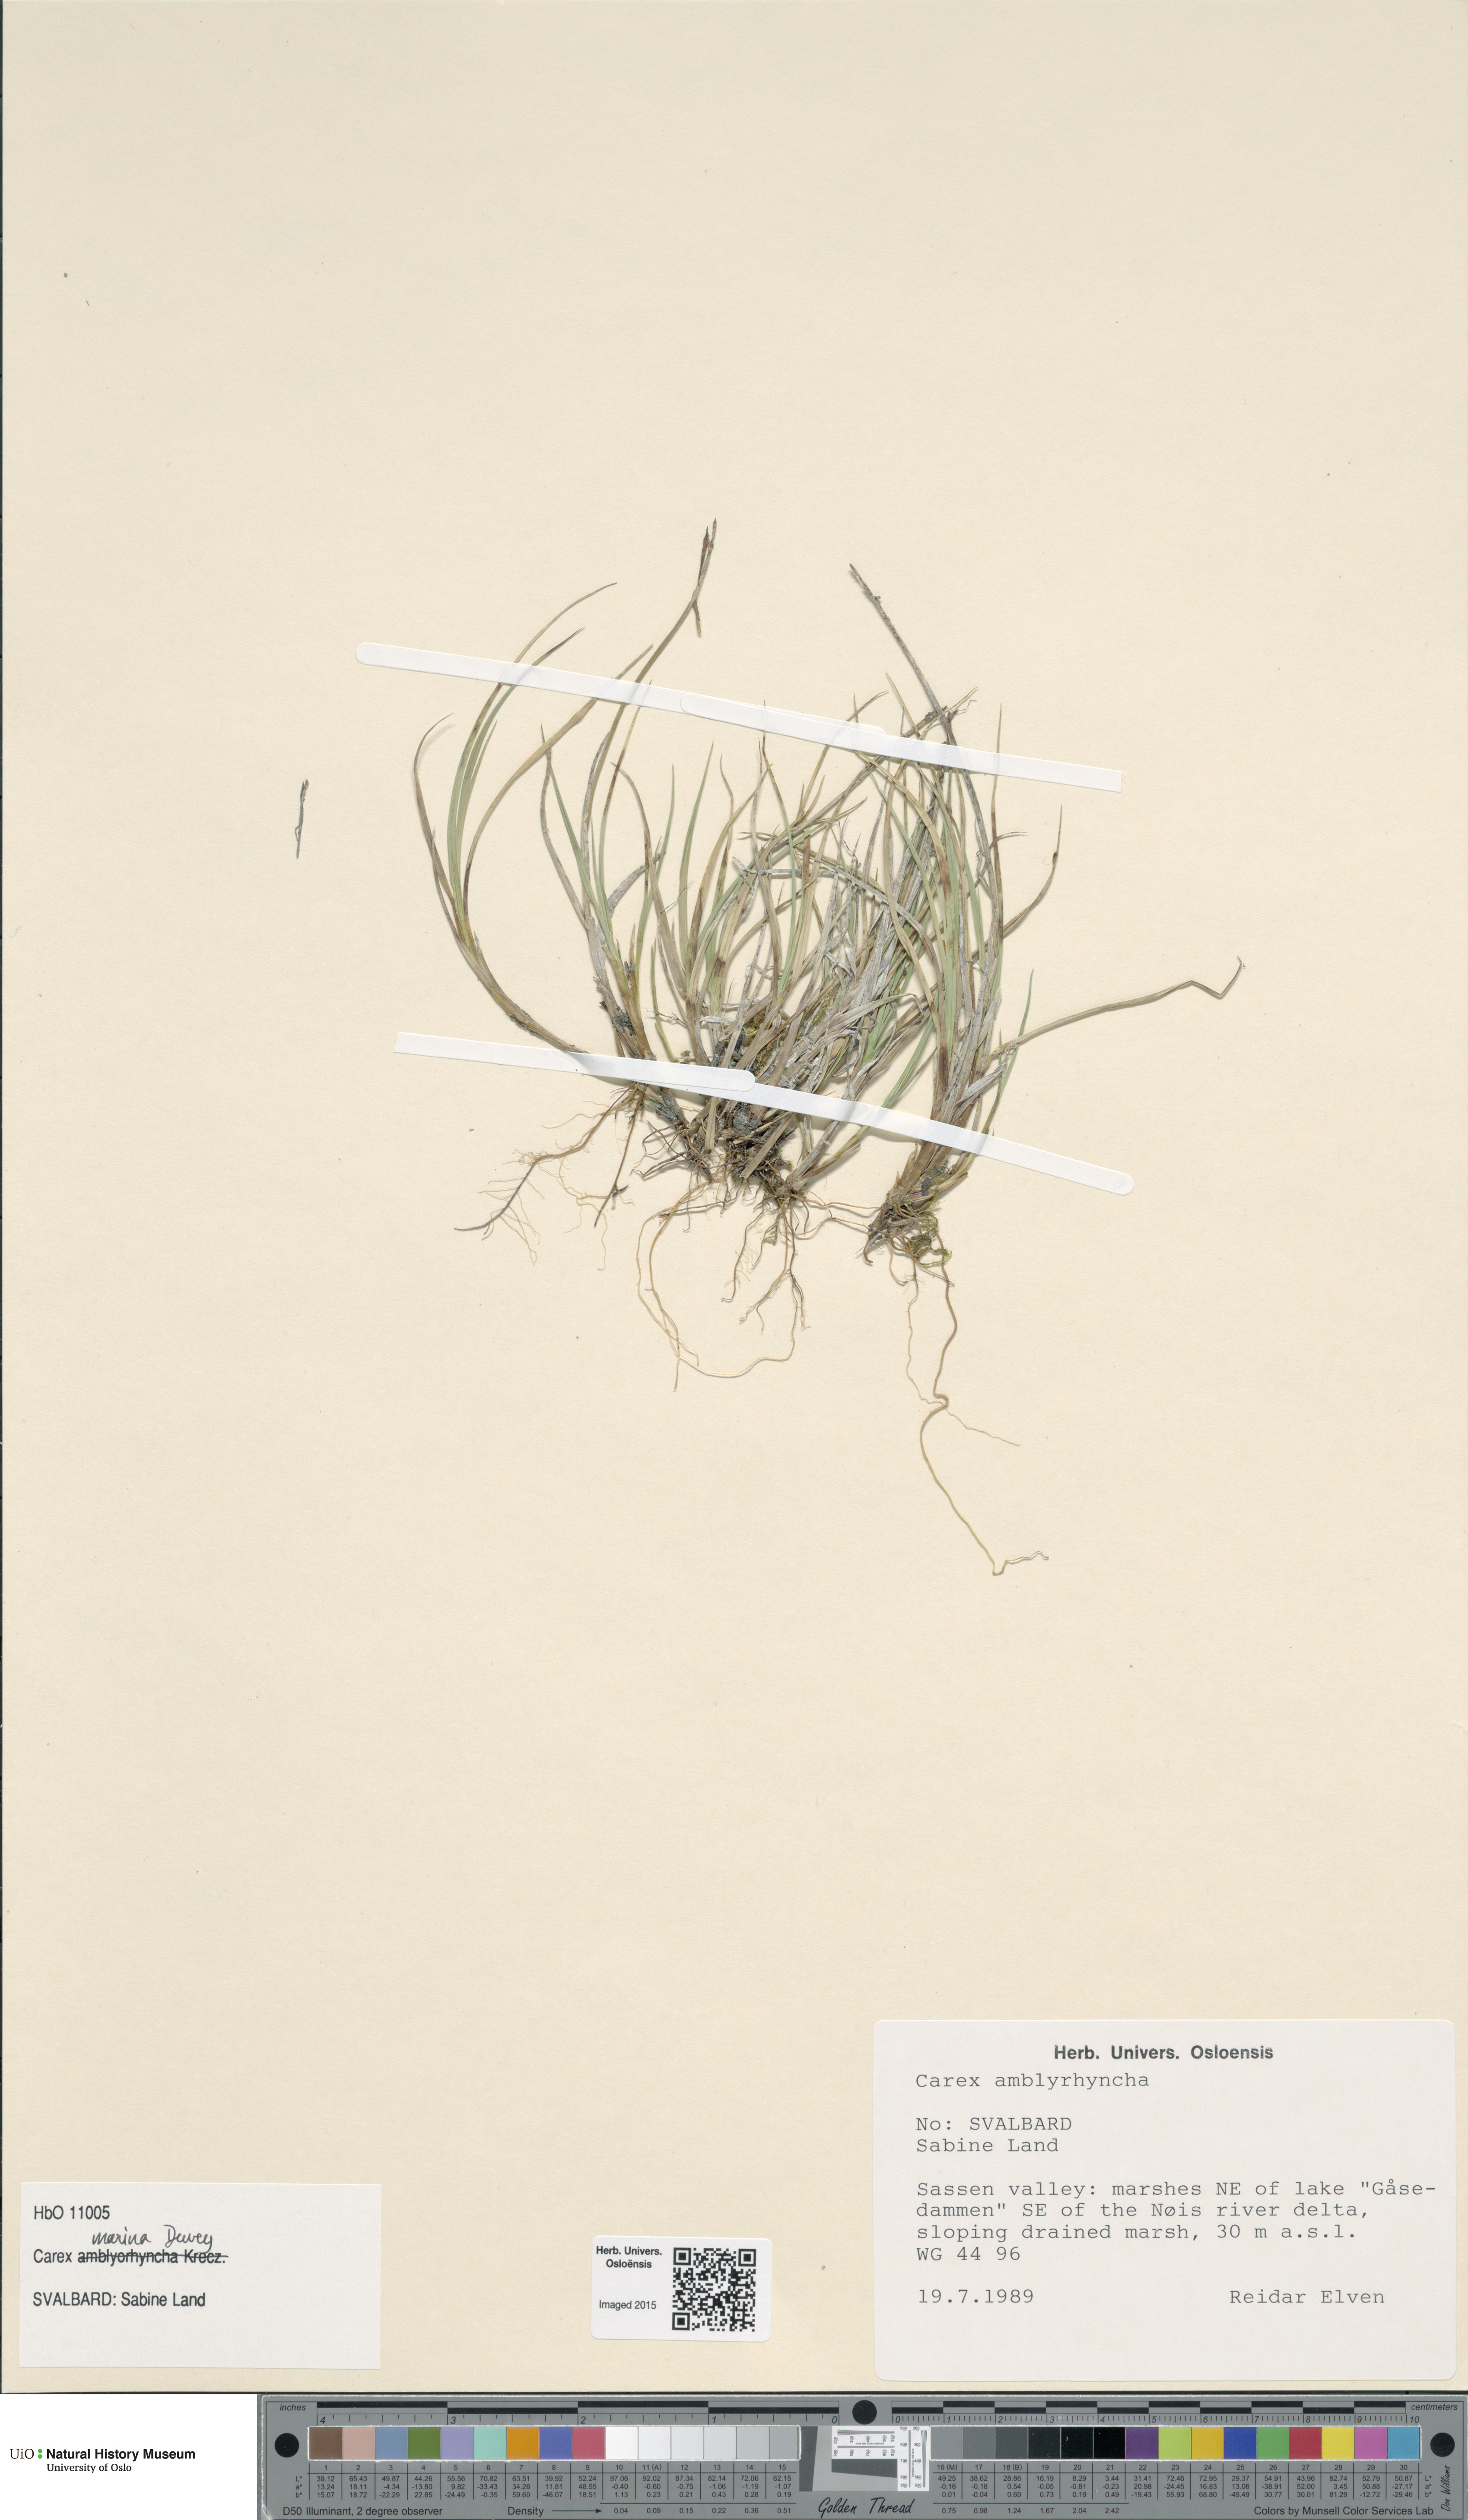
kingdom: Plantae
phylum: Tracheophyta
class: Liliopsida
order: Poales
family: Cyperaceae
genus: Carex
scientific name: Carex marina
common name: Seashore sedge
